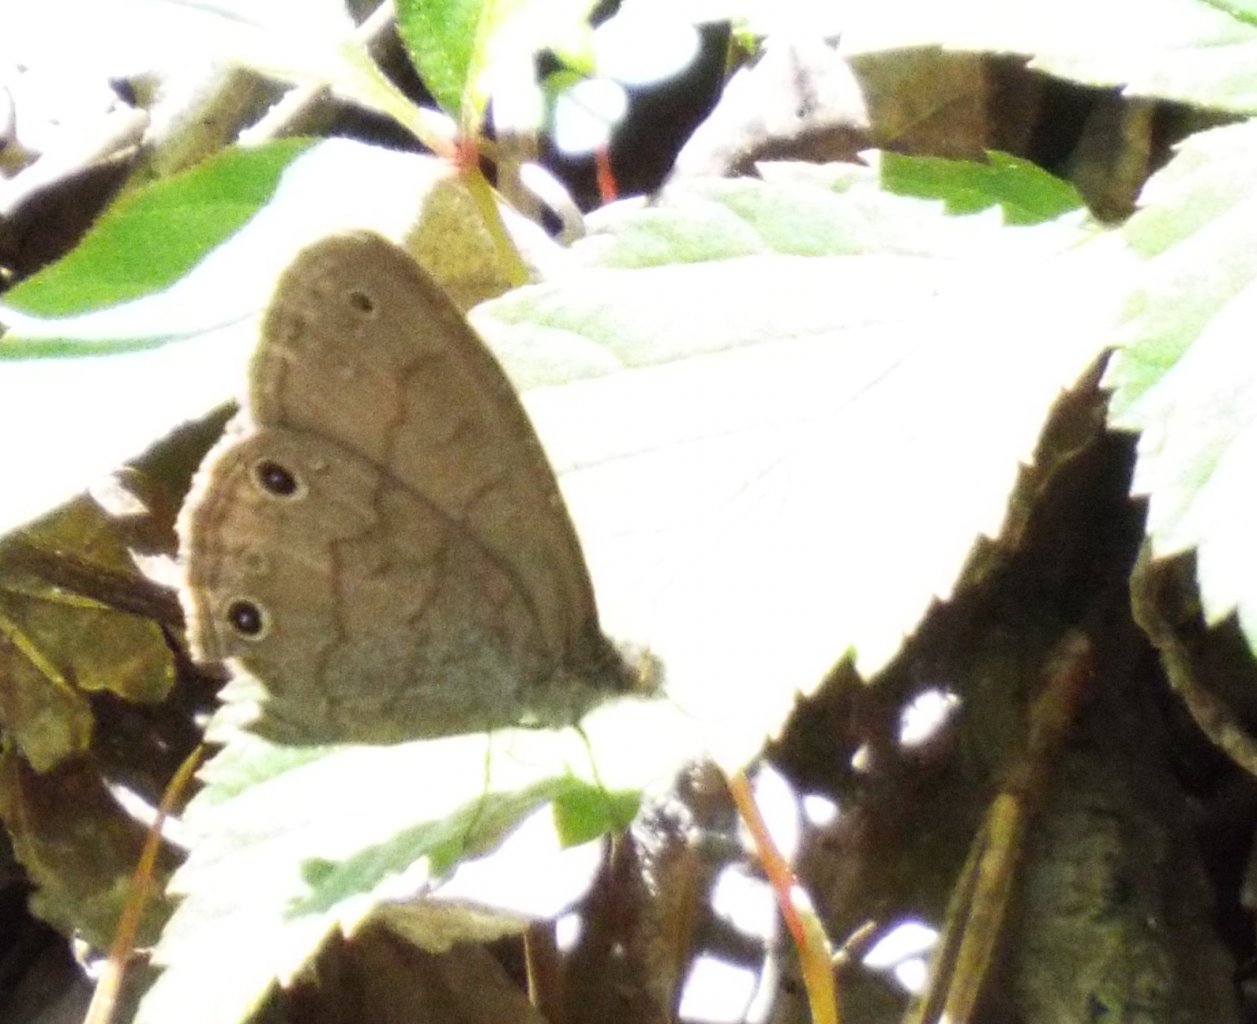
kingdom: Animalia
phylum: Arthropoda
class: Insecta
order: Lepidoptera
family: Nymphalidae
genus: Hermeuptychia
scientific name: Hermeuptychia hermes
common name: Carolina Satyr
